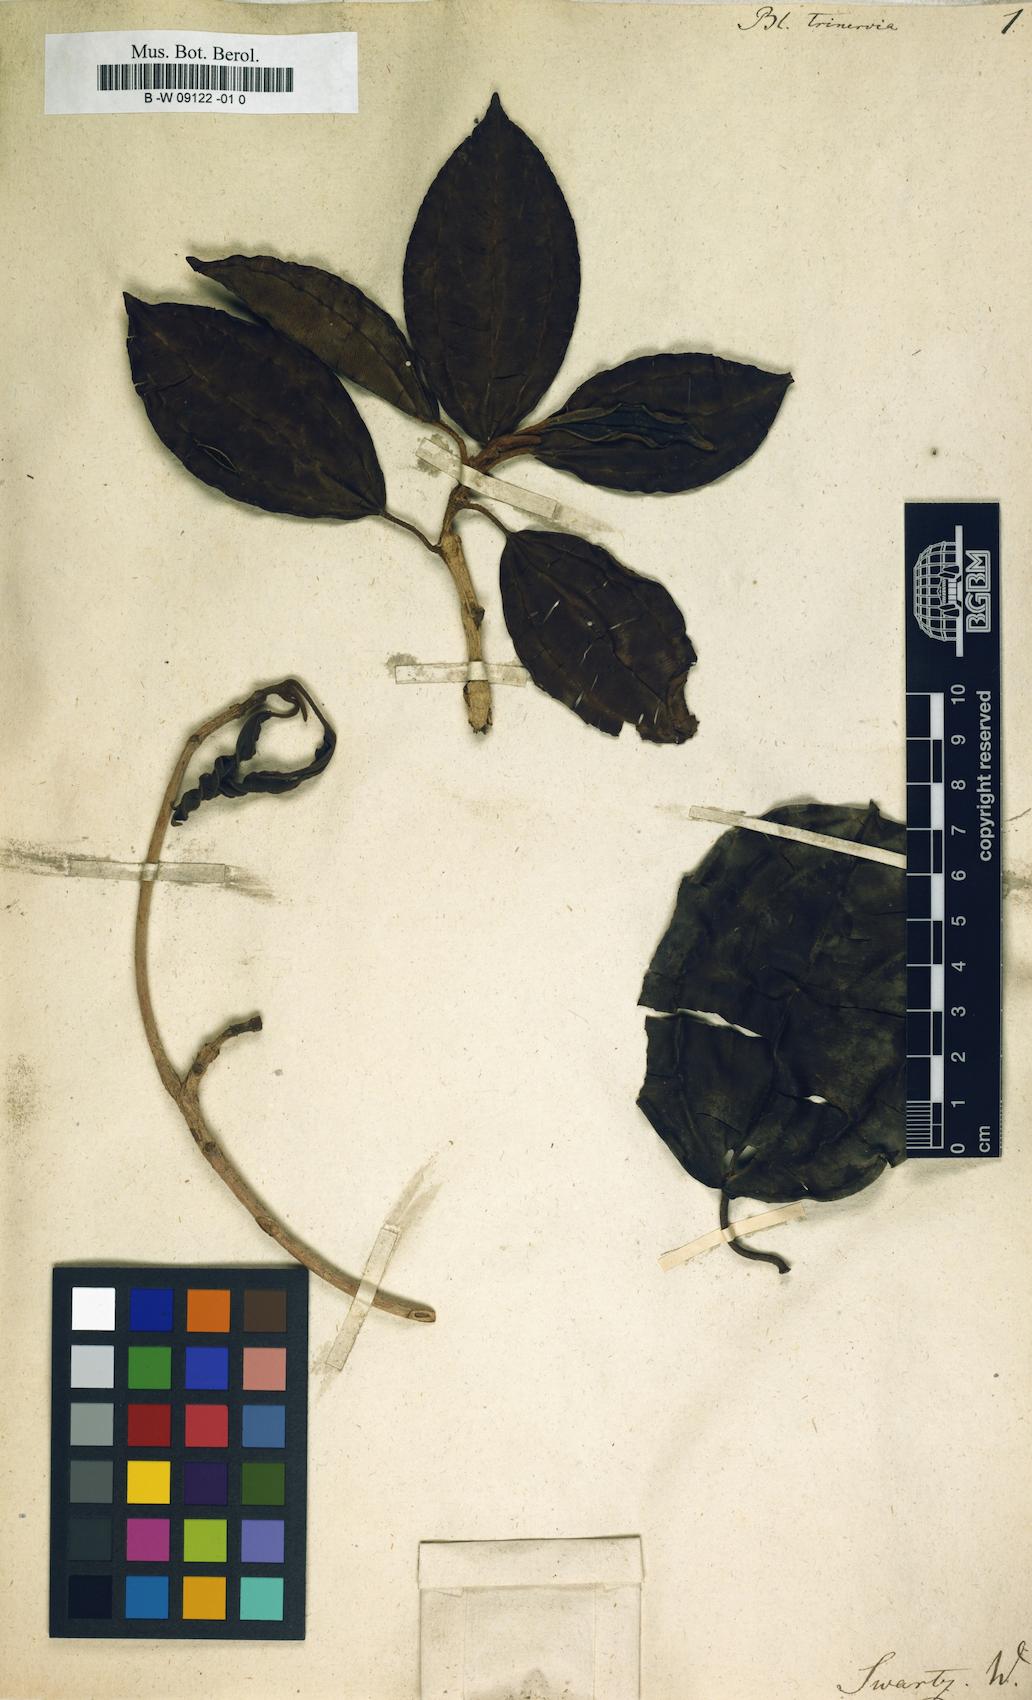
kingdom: Plantae
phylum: Tracheophyta
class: Magnoliopsida
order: Myrtales
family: Melastomataceae
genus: Blakea
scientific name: Blakea trinervia
